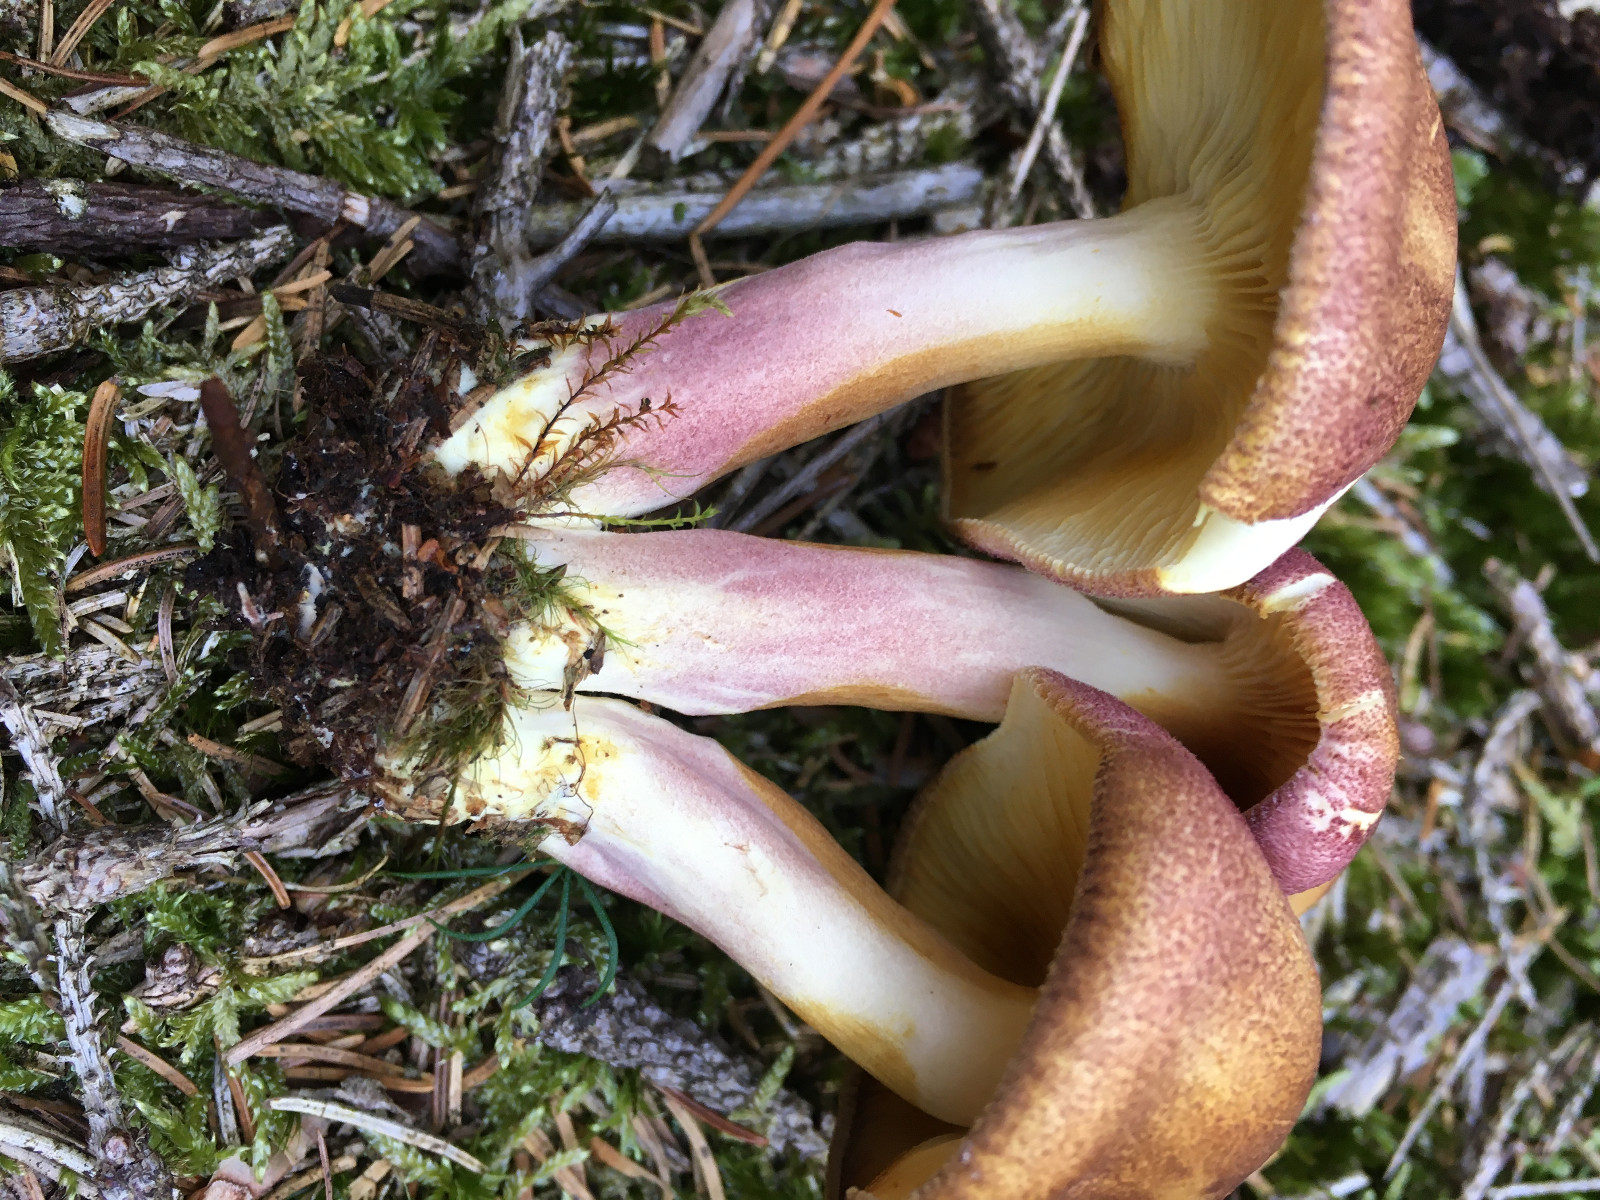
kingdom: Fungi
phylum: Basidiomycota
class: Agaricomycetes
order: Agaricales
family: Tricholomataceae
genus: Tricholomopsis
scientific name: Tricholomopsis rutilans
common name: purpur-væbnerhat
